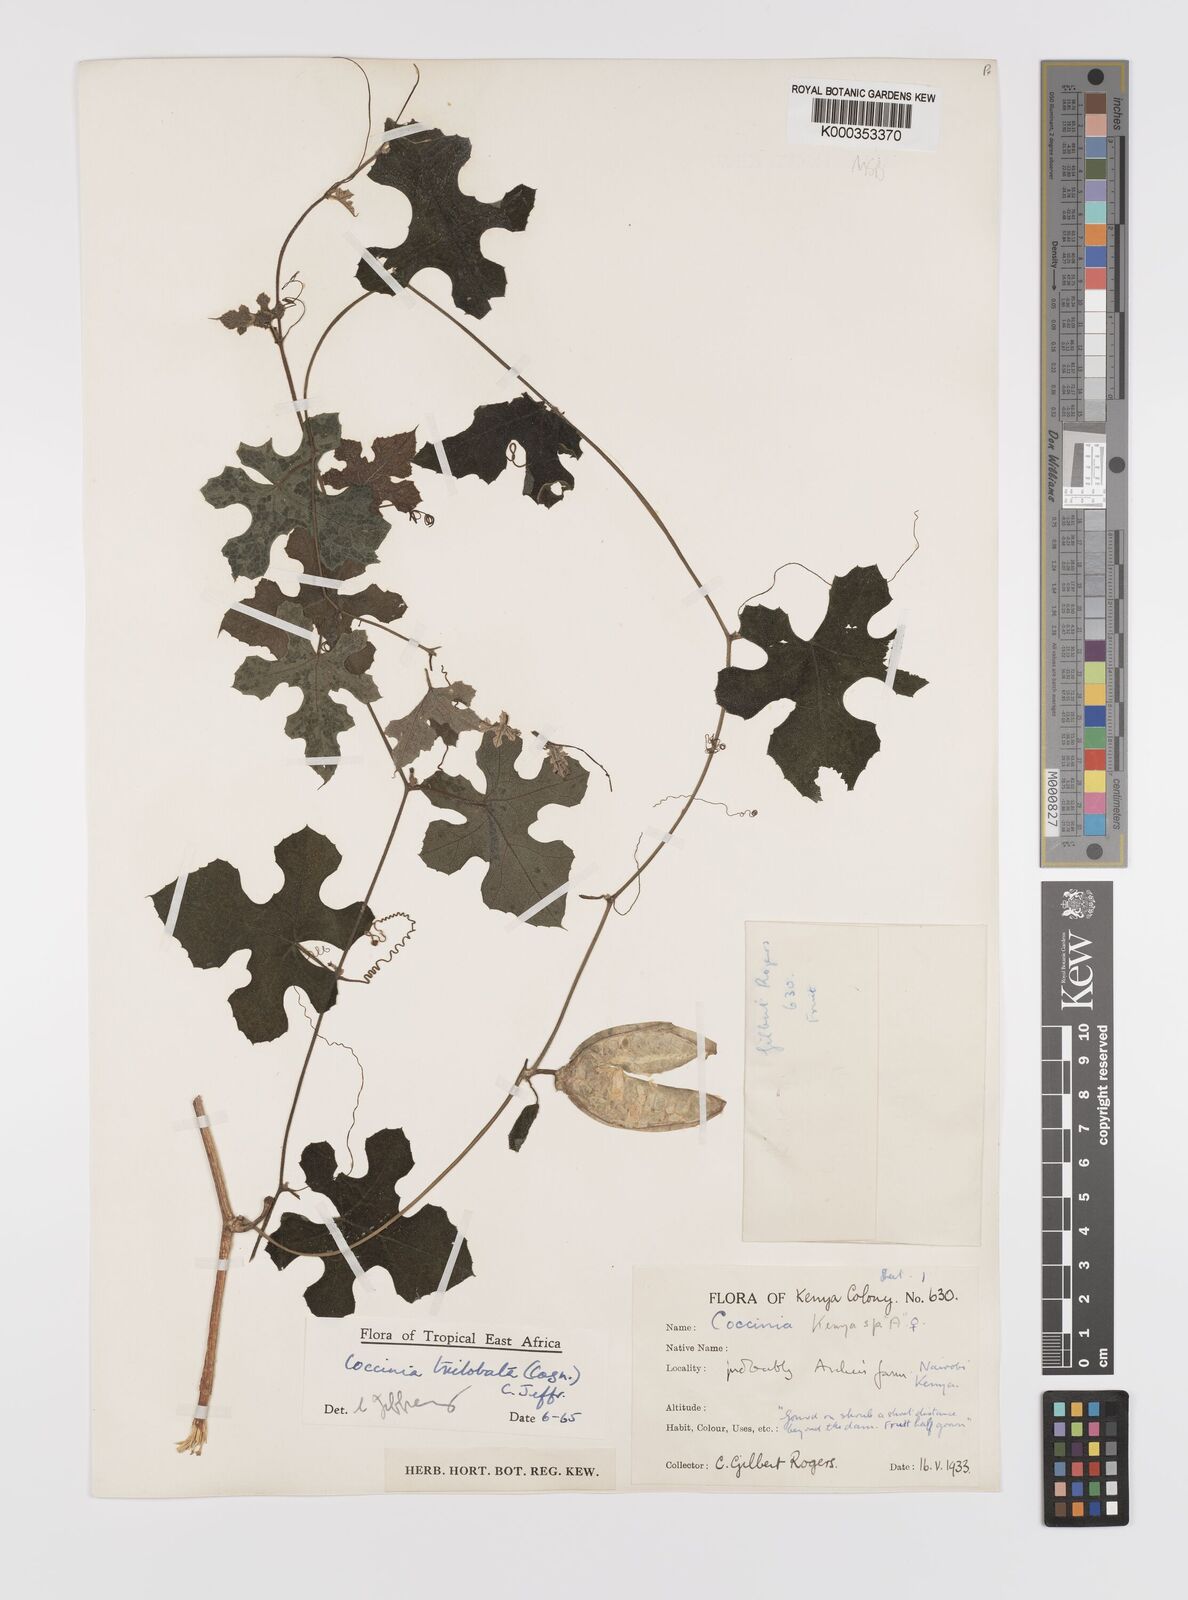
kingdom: Plantae
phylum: Tracheophyta
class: Magnoliopsida
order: Cucurbitales
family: Cucurbitaceae
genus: Coccinia
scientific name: Coccinia trilobata
